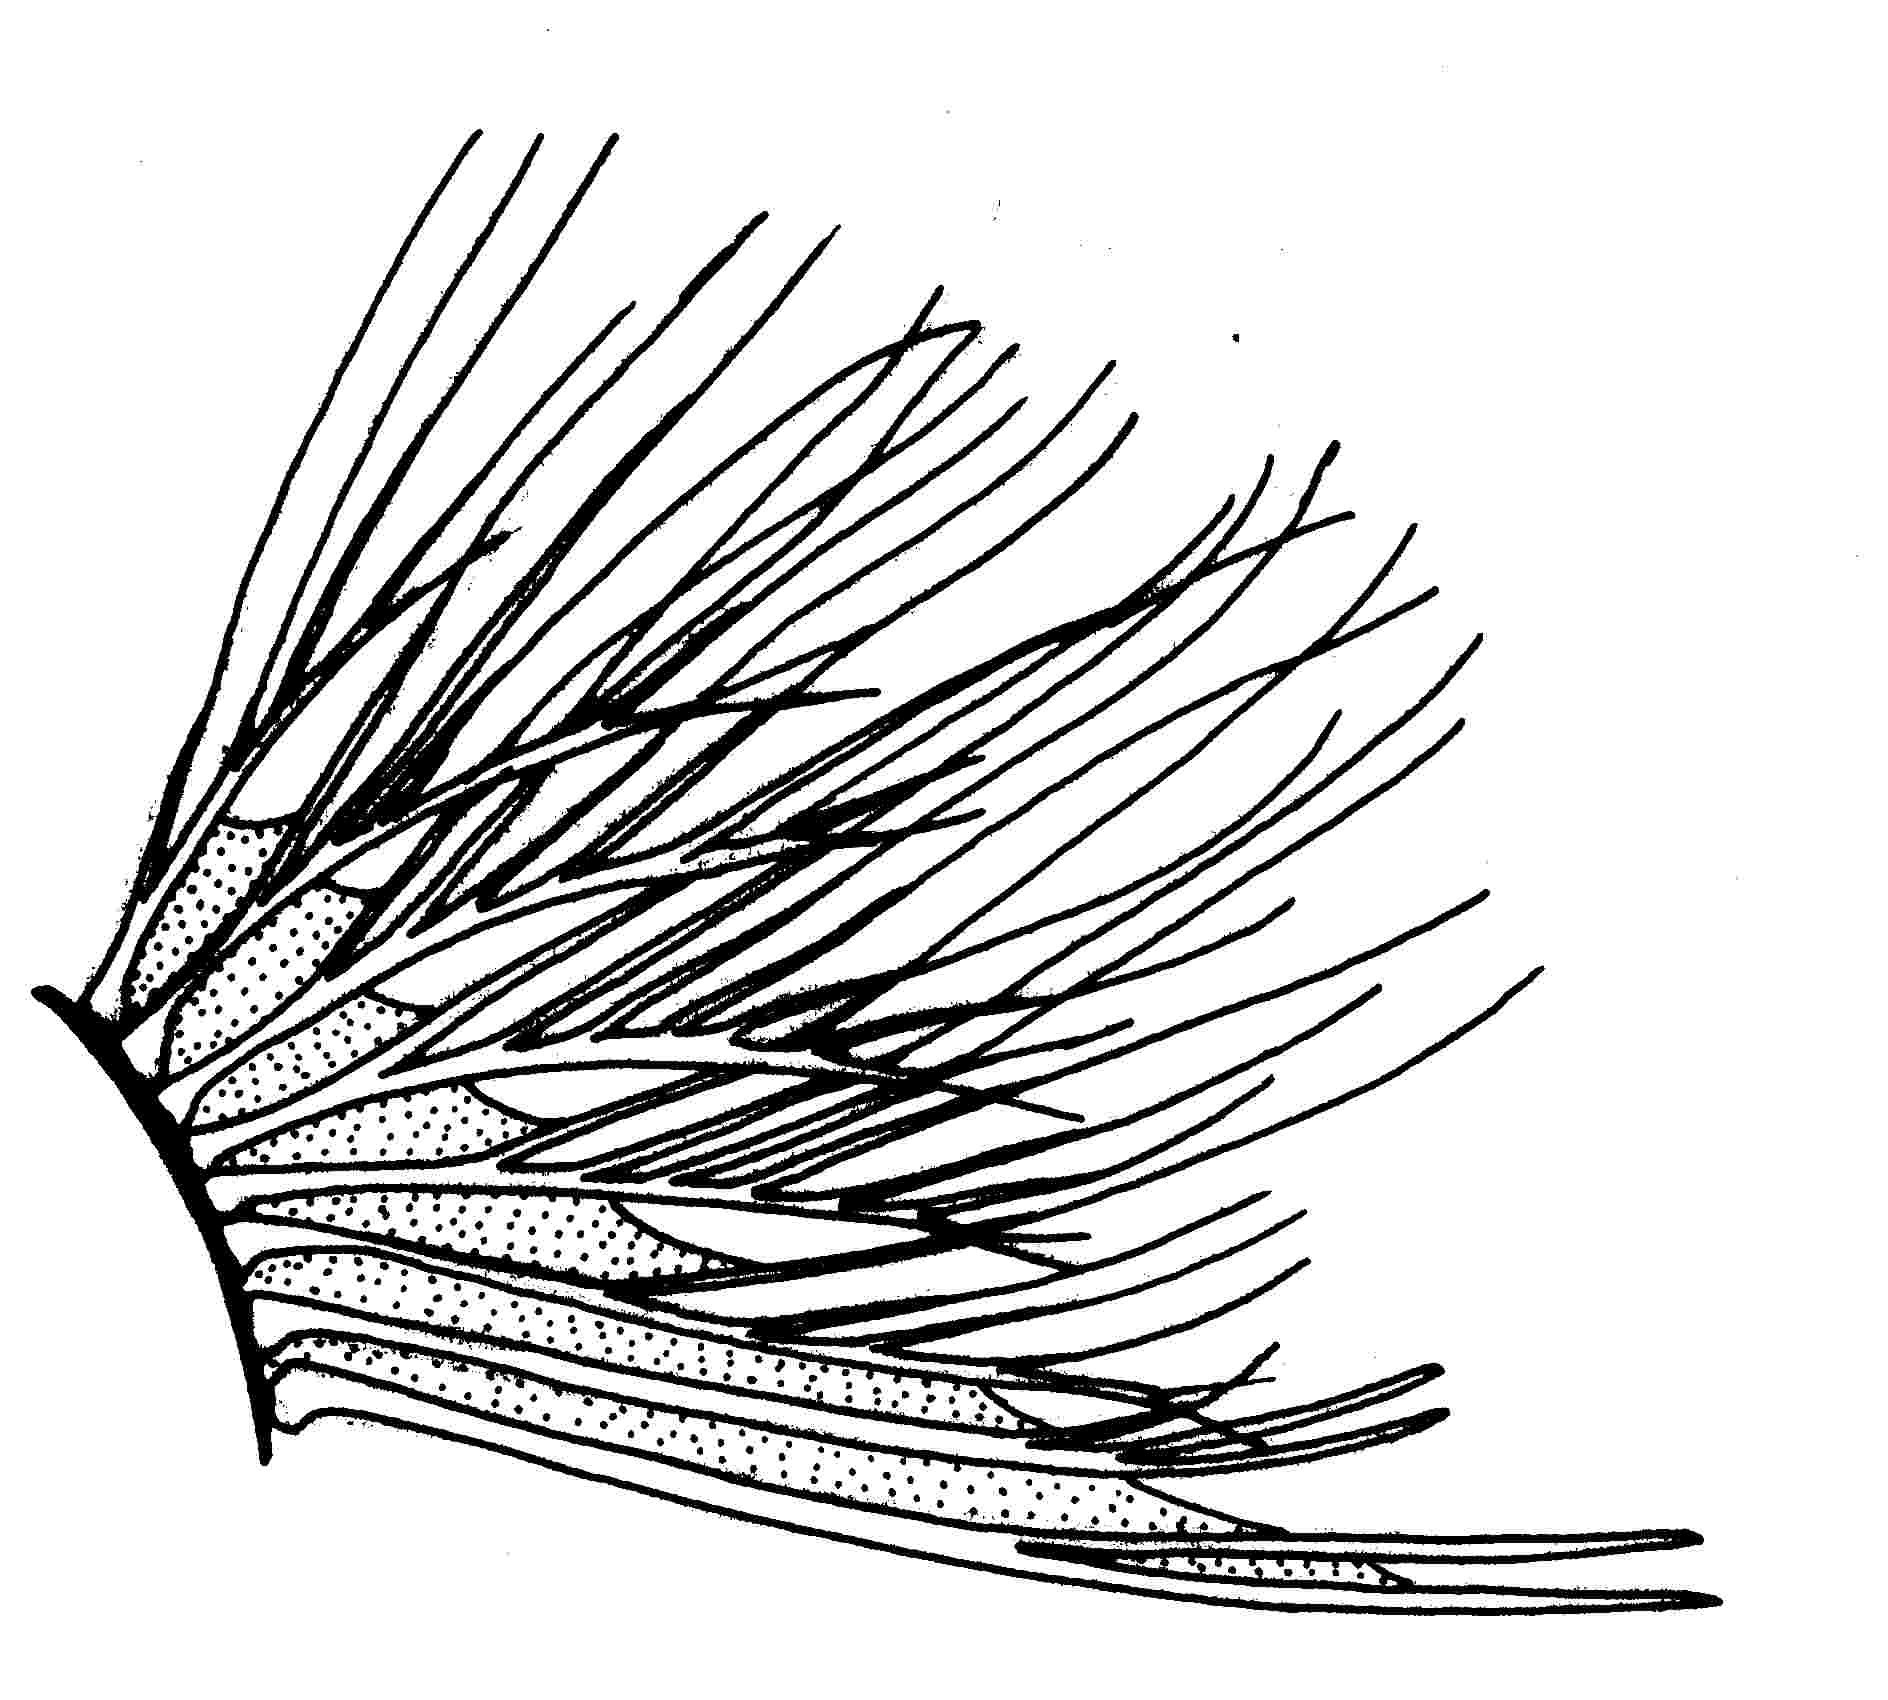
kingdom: Animalia
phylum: Chordata
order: Perciformes
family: Gobiidae
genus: Bathygobius
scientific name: Bathygobius fuscus
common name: Dusky frillgoby
